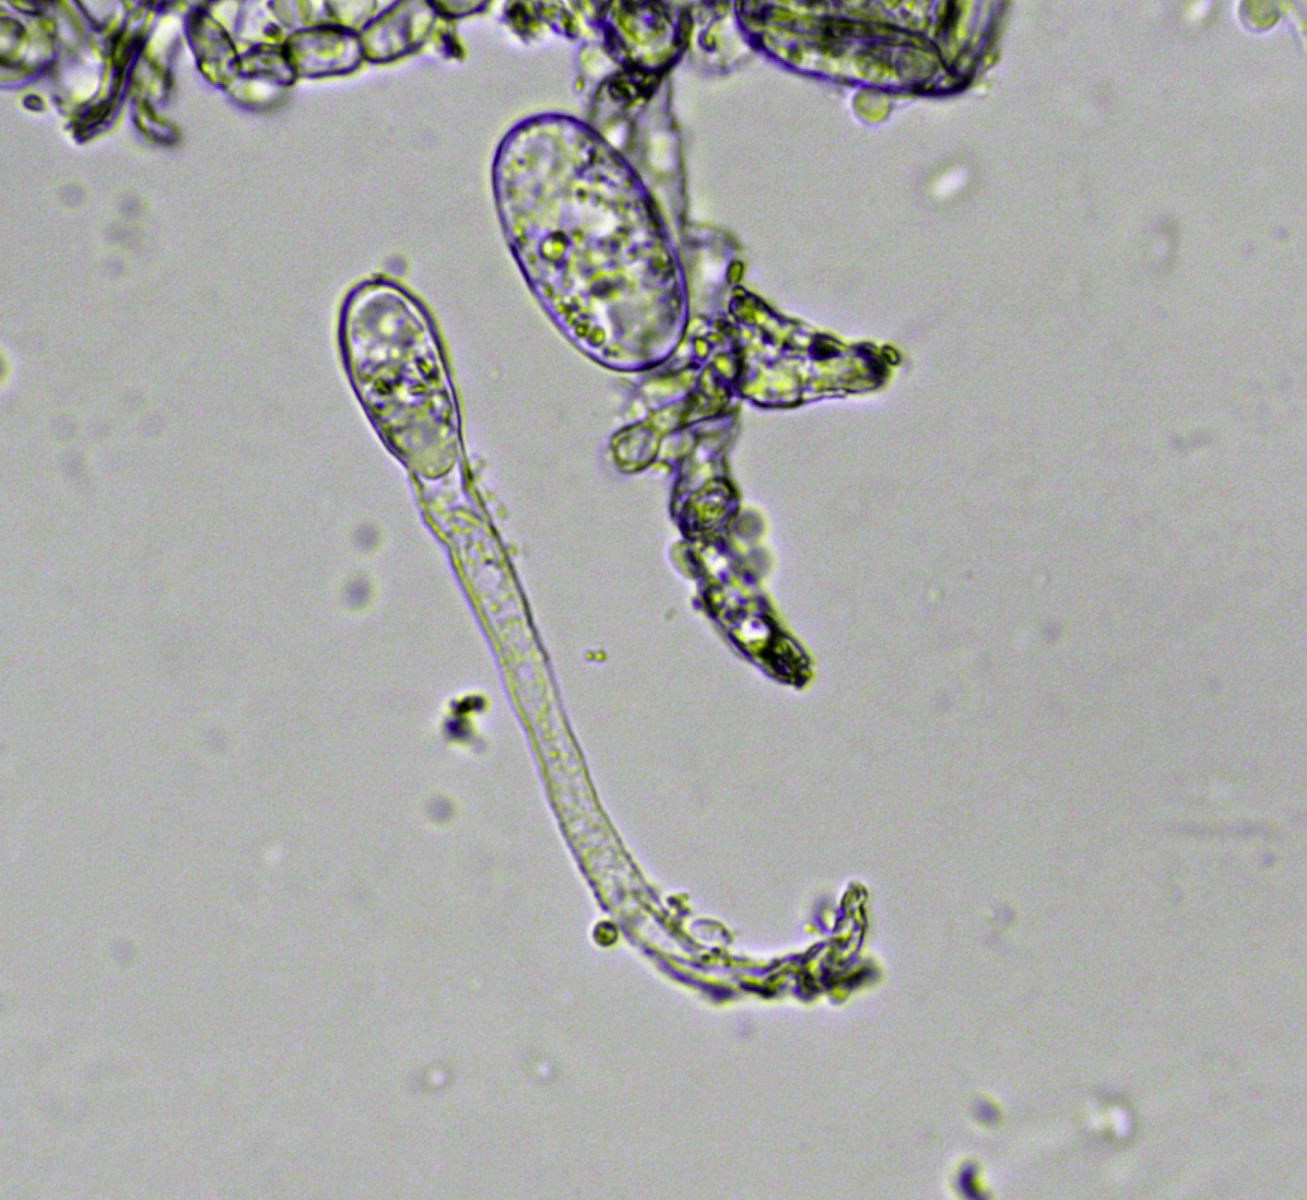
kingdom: Fungi
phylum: Ascomycota
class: Leotiomycetes
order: Helotiales
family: Erysiphaceae
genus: Erysiphe
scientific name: Erysiphe symphoricarpi
